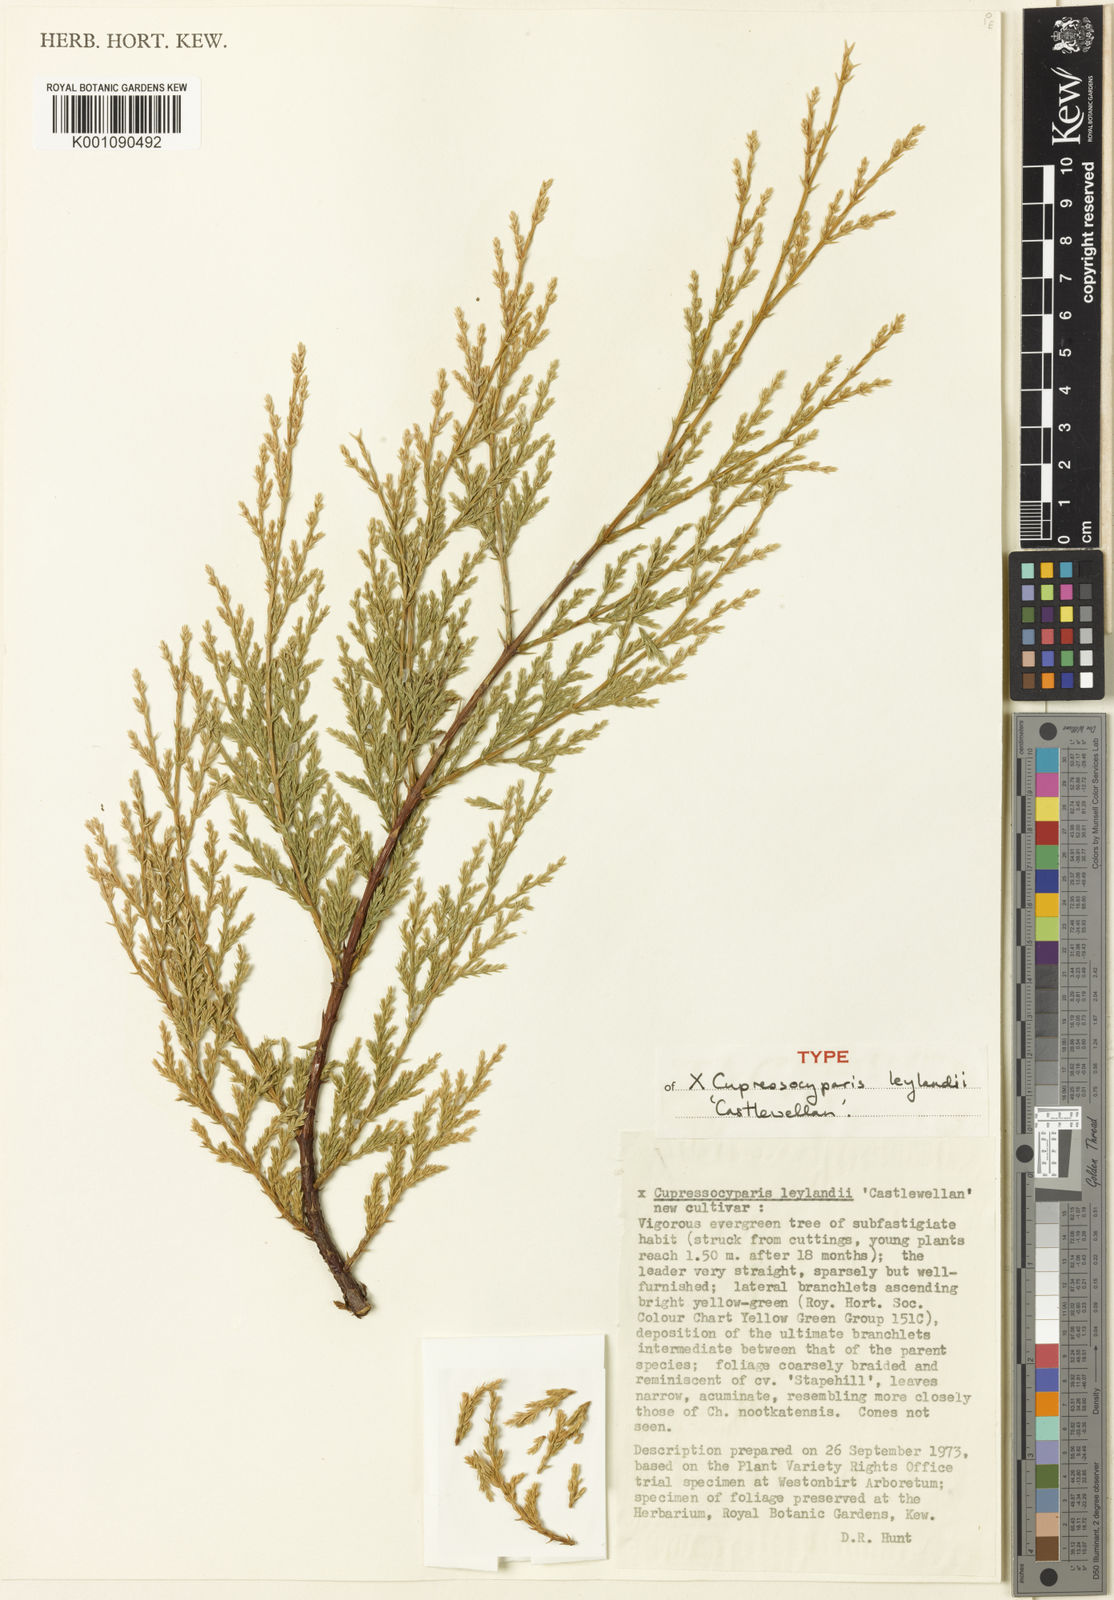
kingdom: Plantae
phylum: Tracheophyta
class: Pinopsida
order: Pinales
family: Cupressaceae
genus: Hesperotropsis
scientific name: Hesperotropsis leylandii
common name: Leyland cypress
